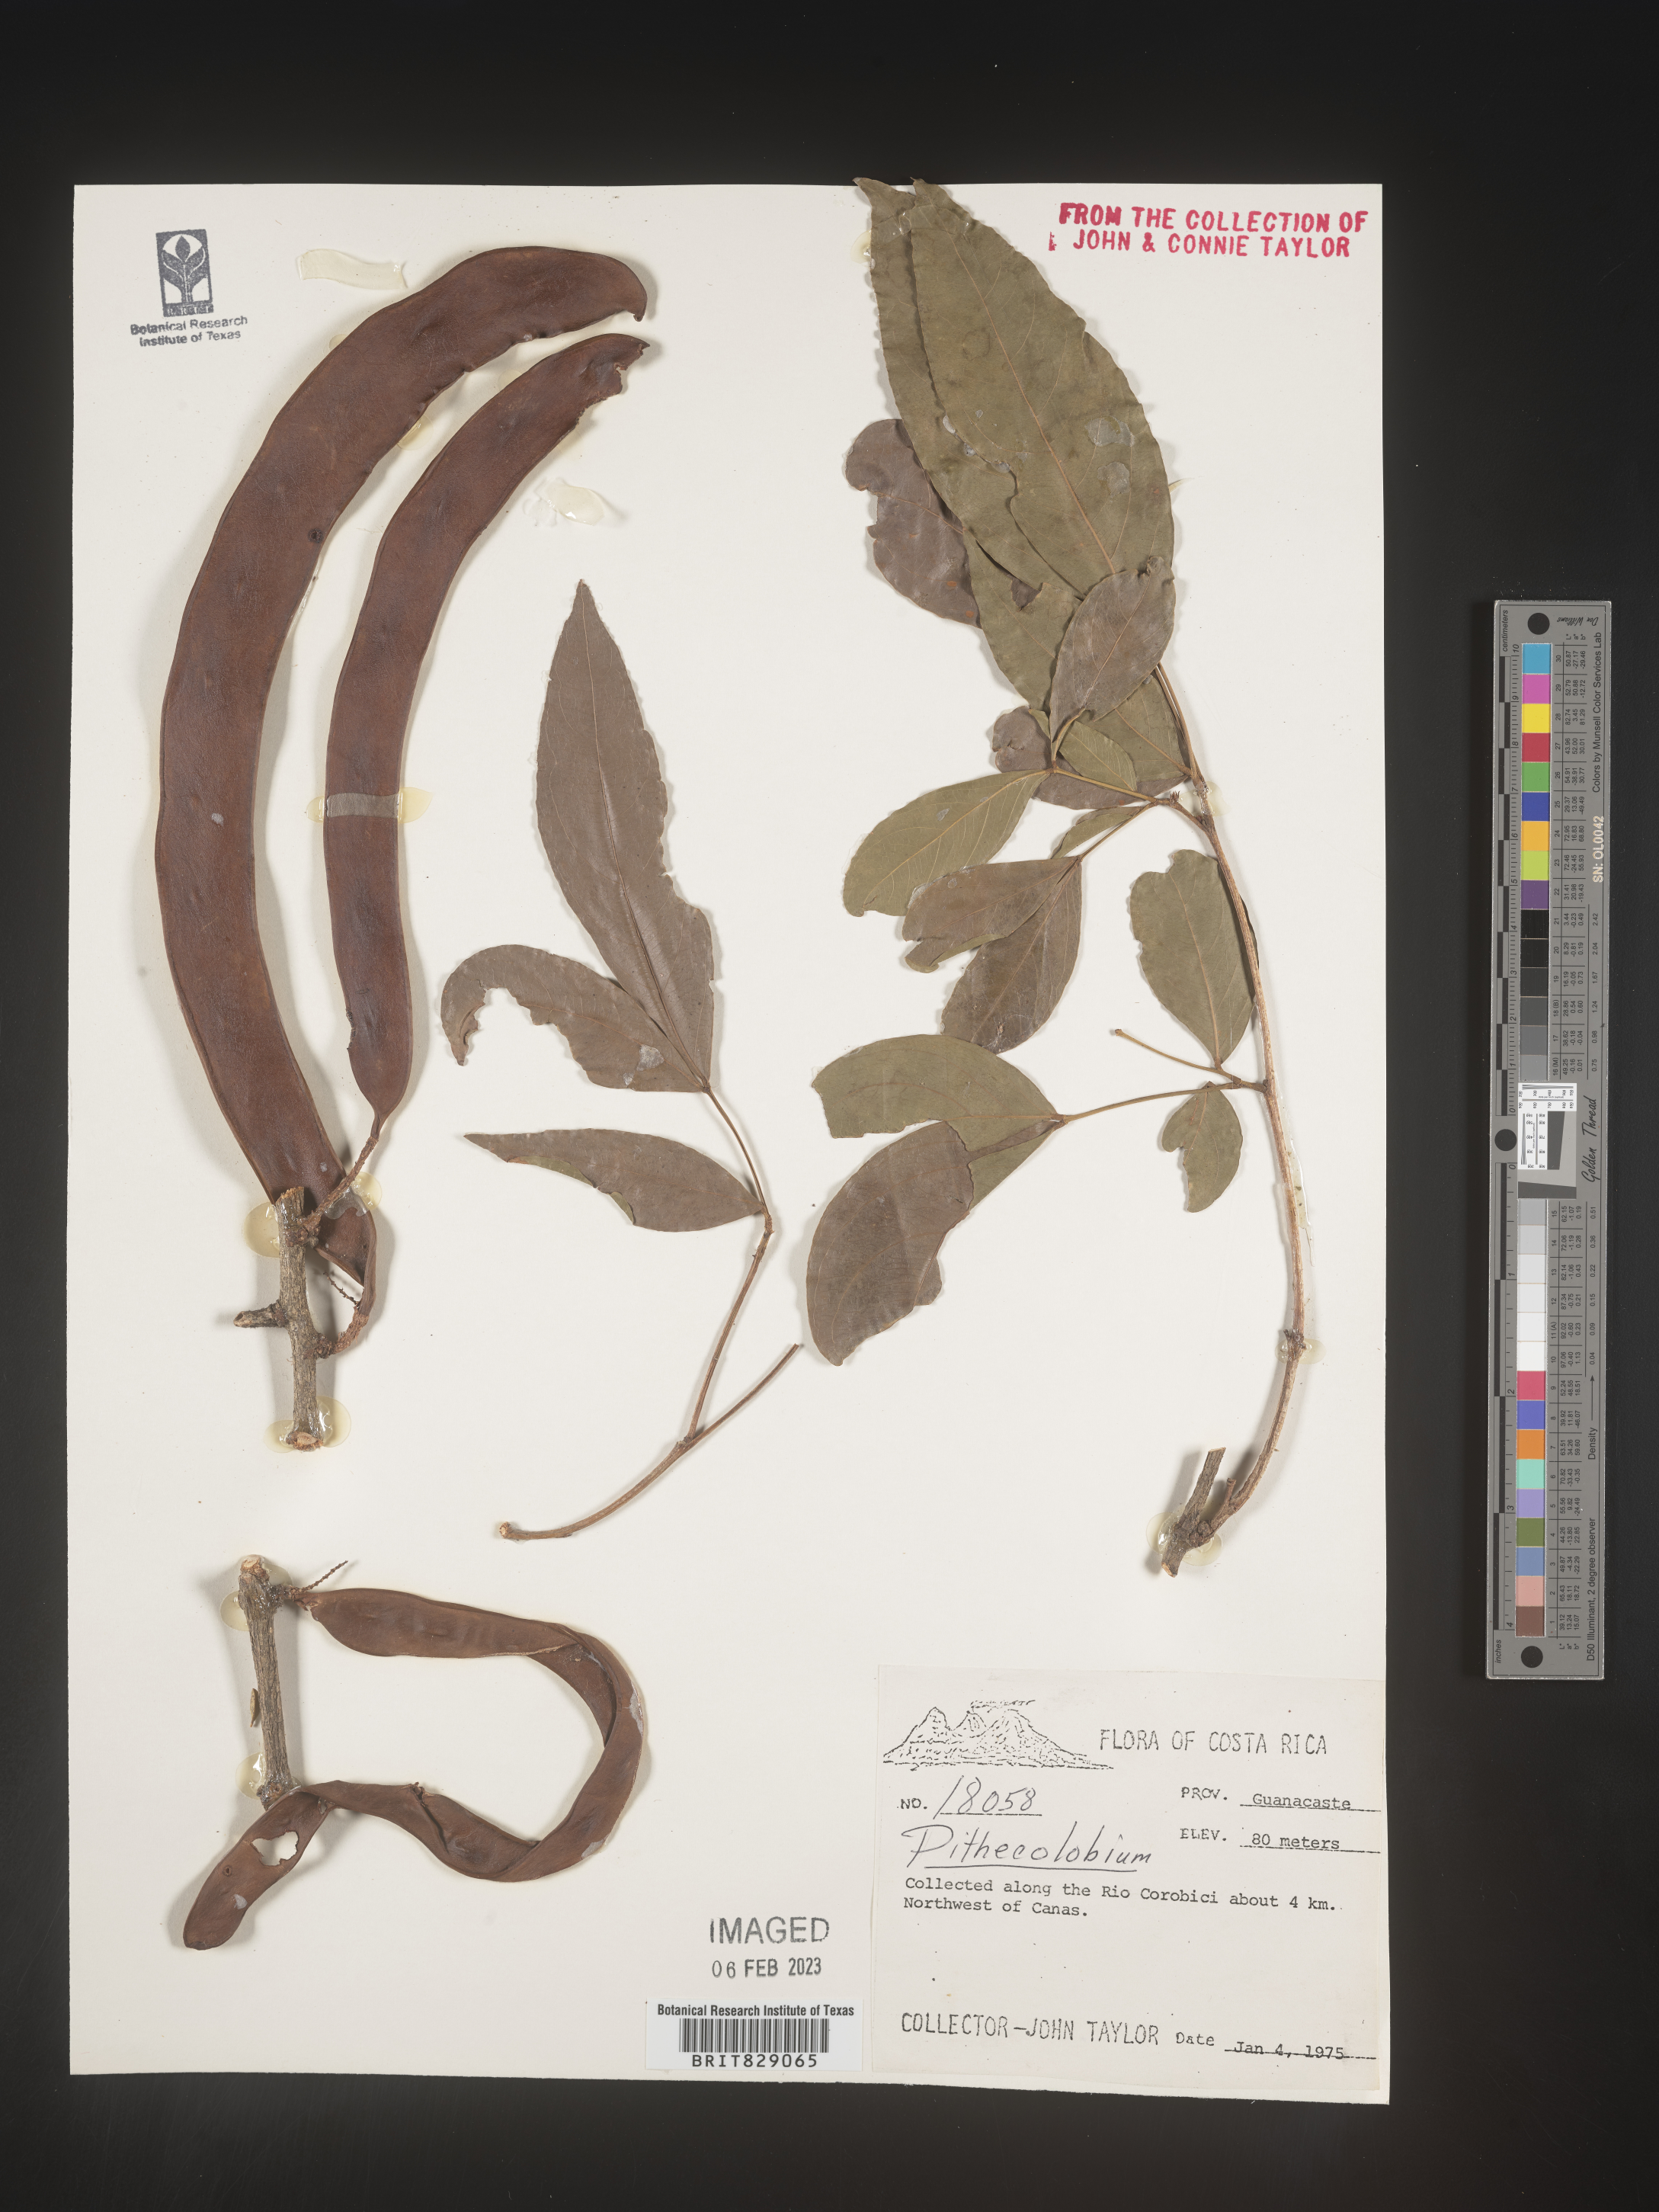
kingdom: Plantae
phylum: Tracheophyta
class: Magnoliopsida
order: Fabales
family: Fabaceae
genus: Pithecellobium
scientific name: Pithecellobium
